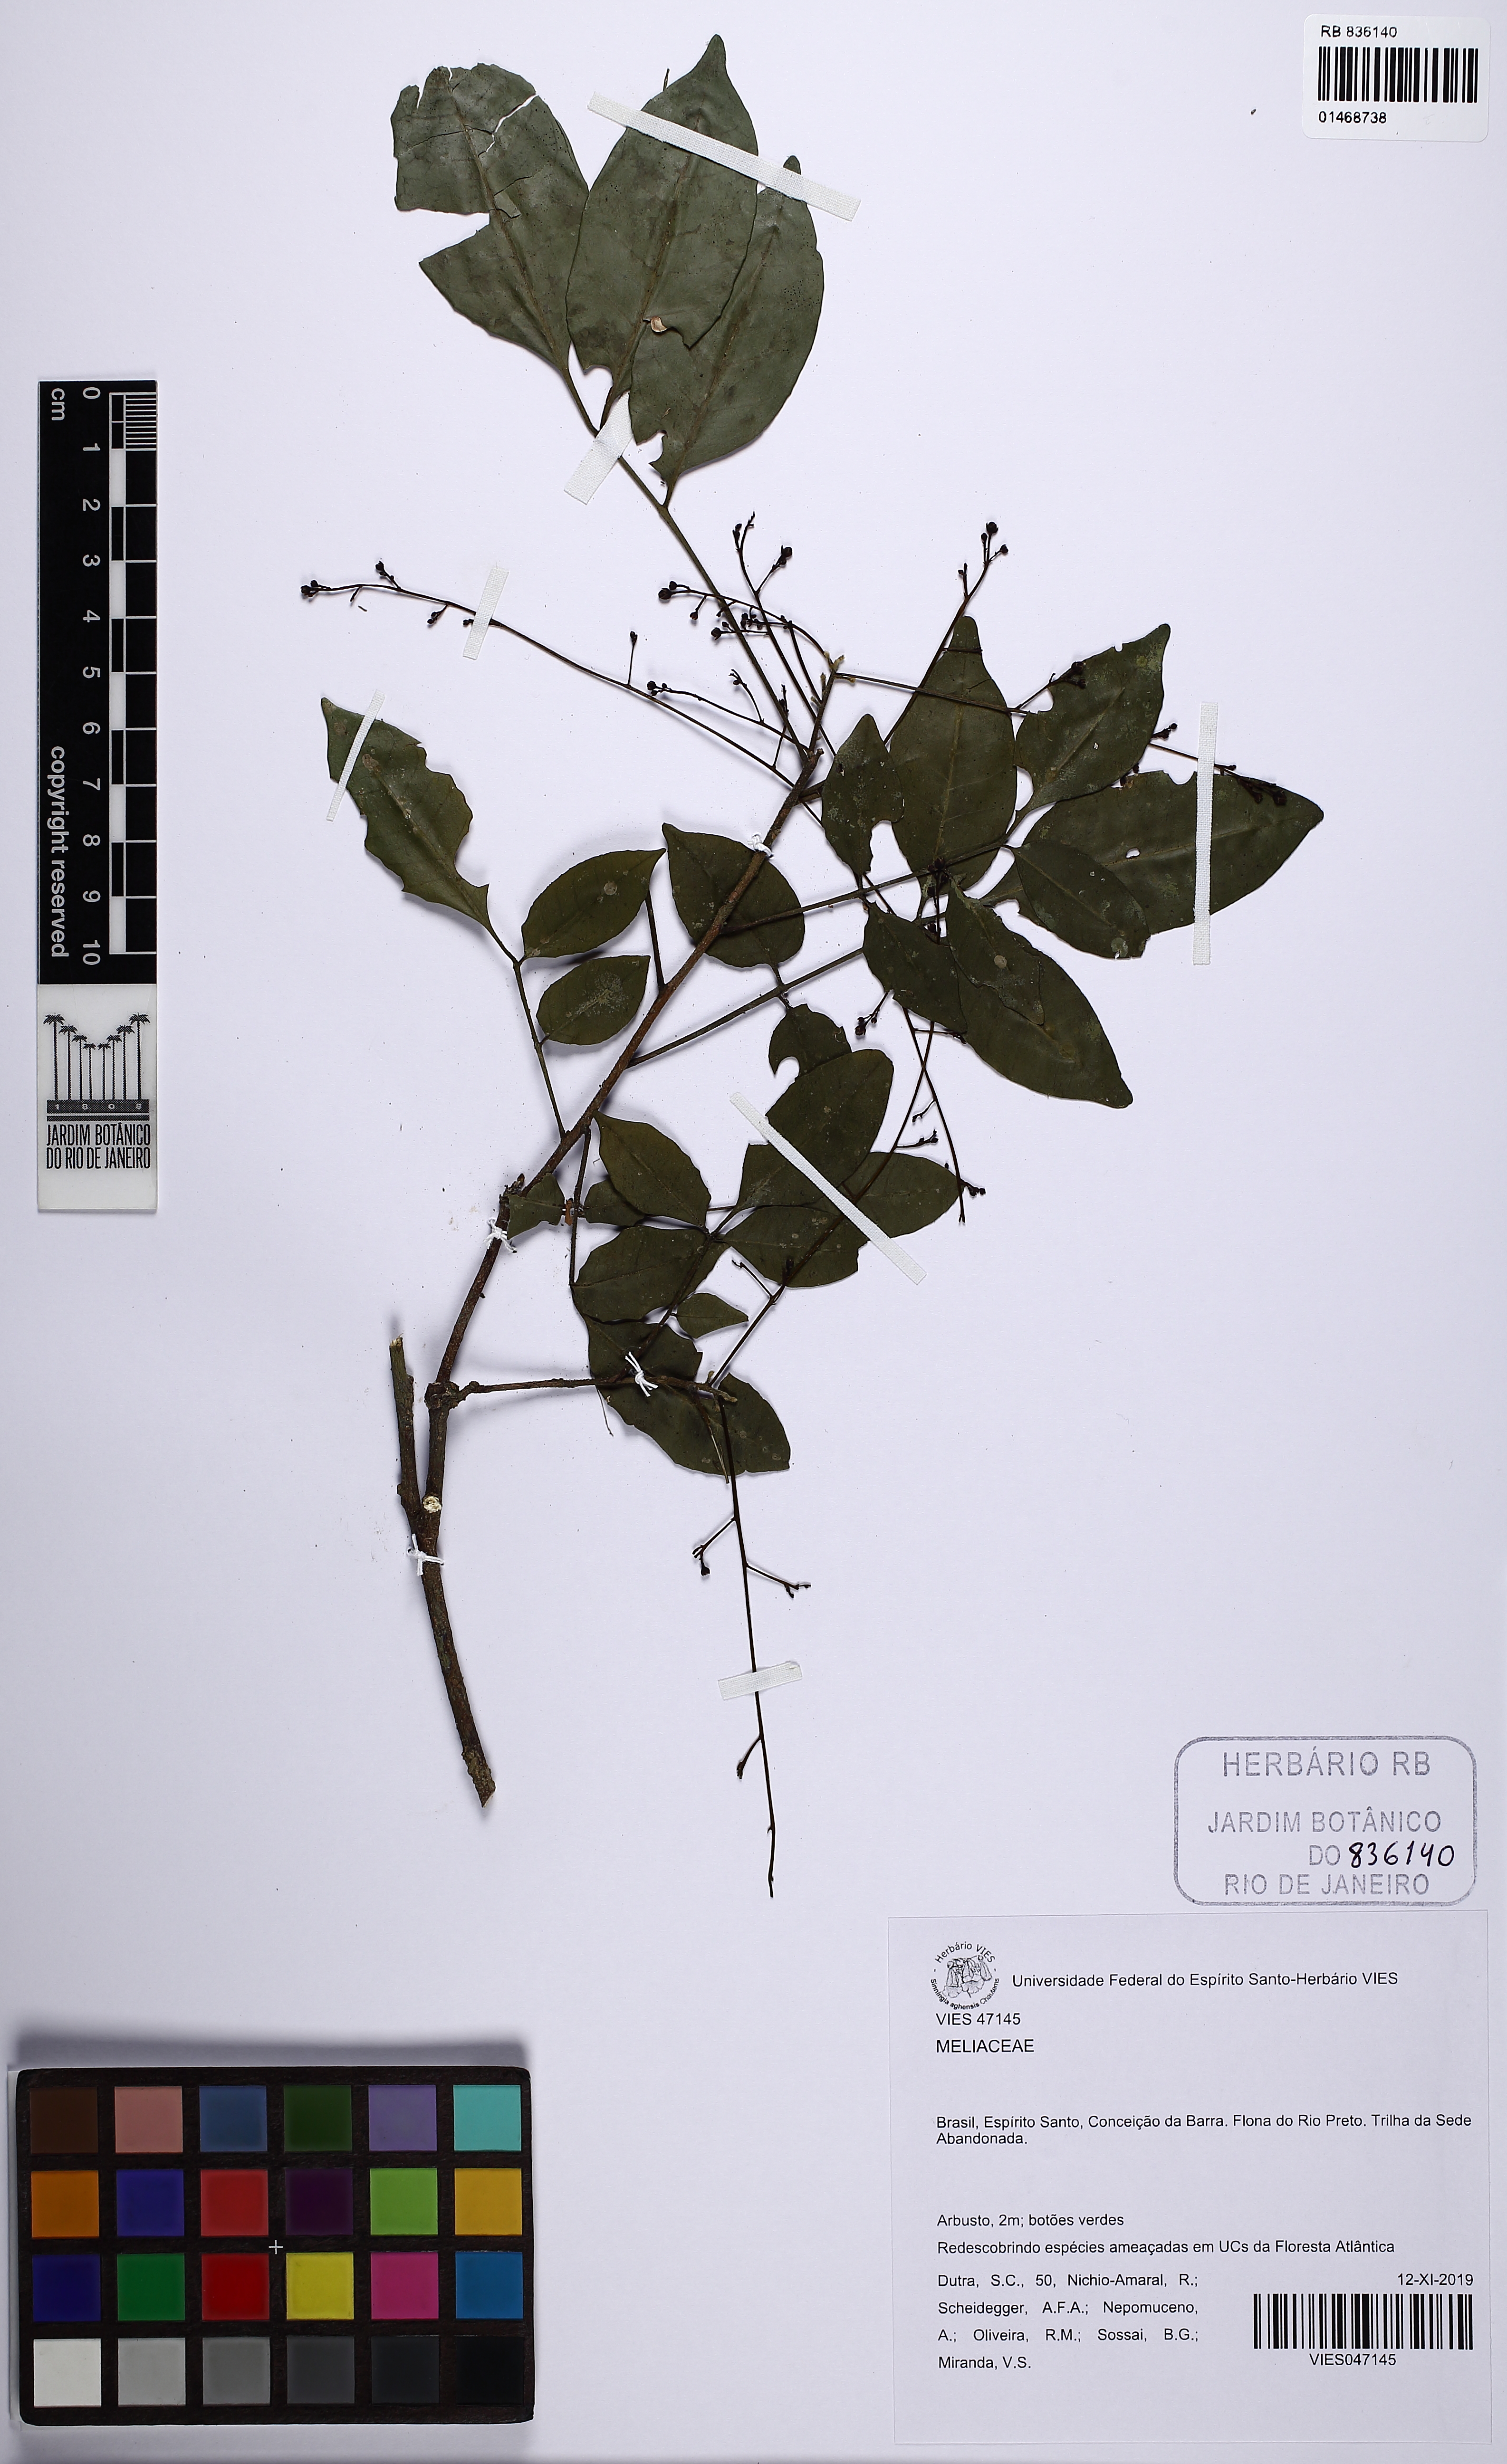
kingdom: Plantae
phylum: Tracheophyta
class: Magnoliopsida
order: Sapindales
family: Meliaceae
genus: Trichilia
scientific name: Trichilia
